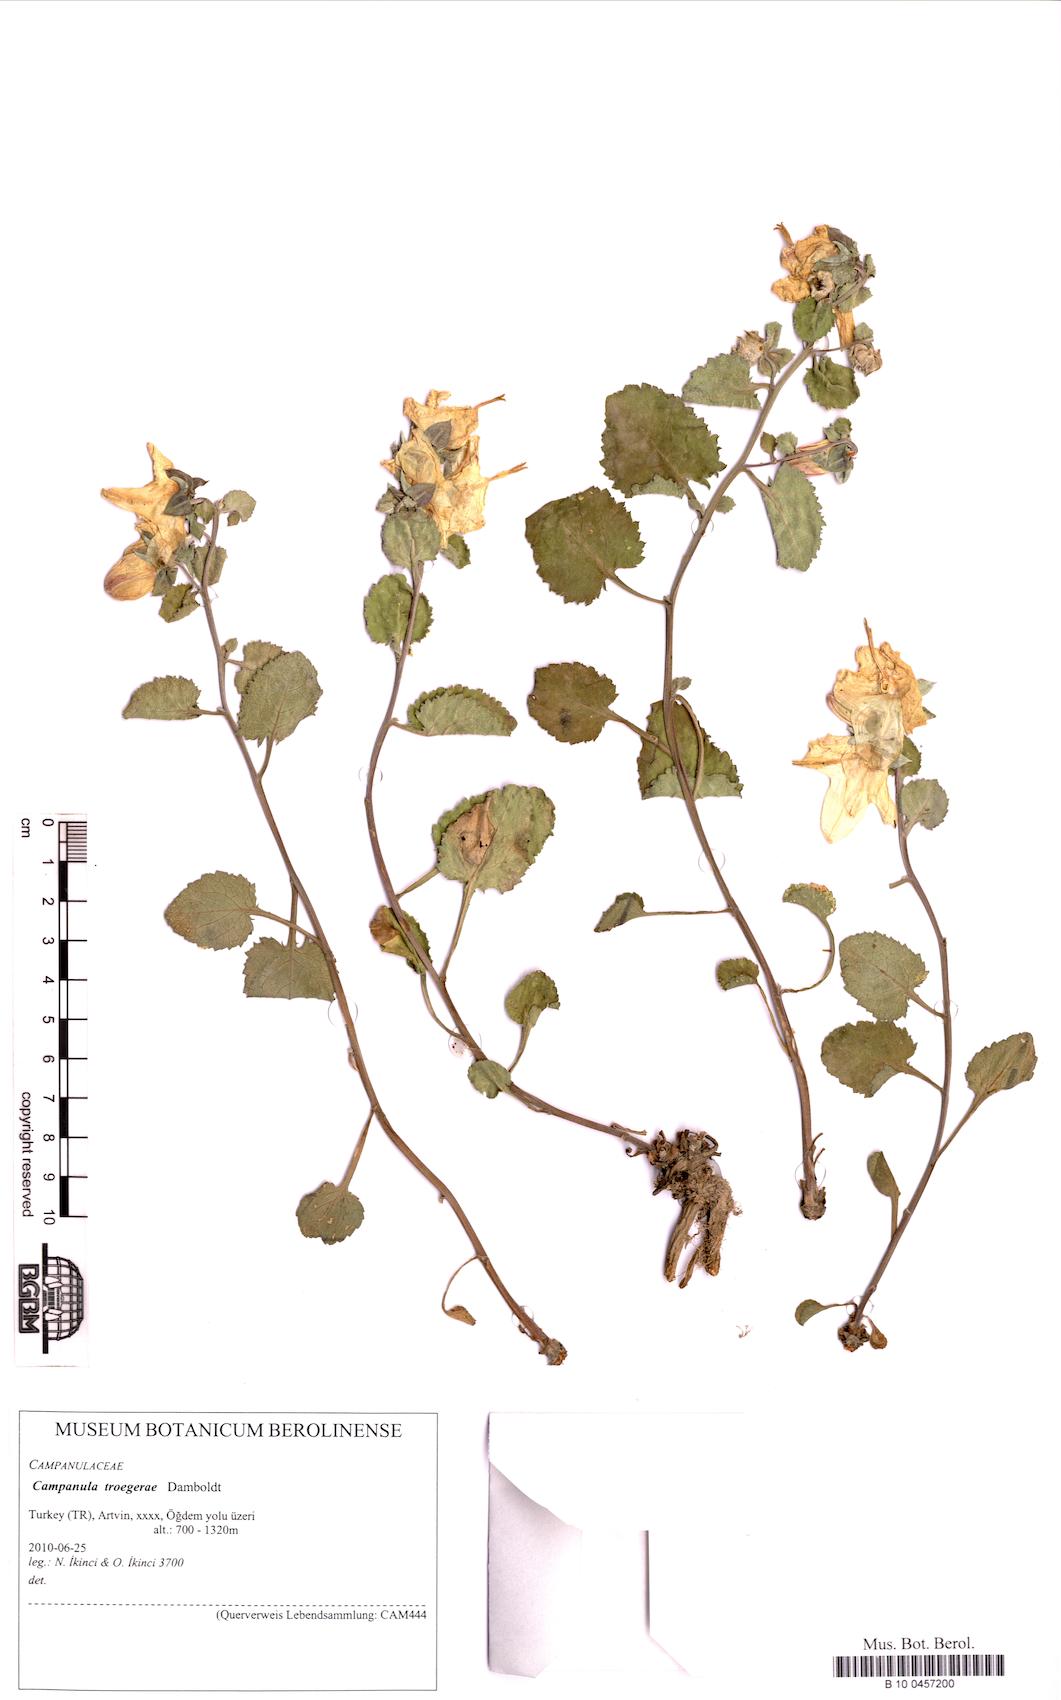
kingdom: Plantae
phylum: Tracheophyta
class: Magnoliopsida
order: Asterales
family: Campanulaceae
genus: Campanula
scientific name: Campanula troegerae
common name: Bellflower
